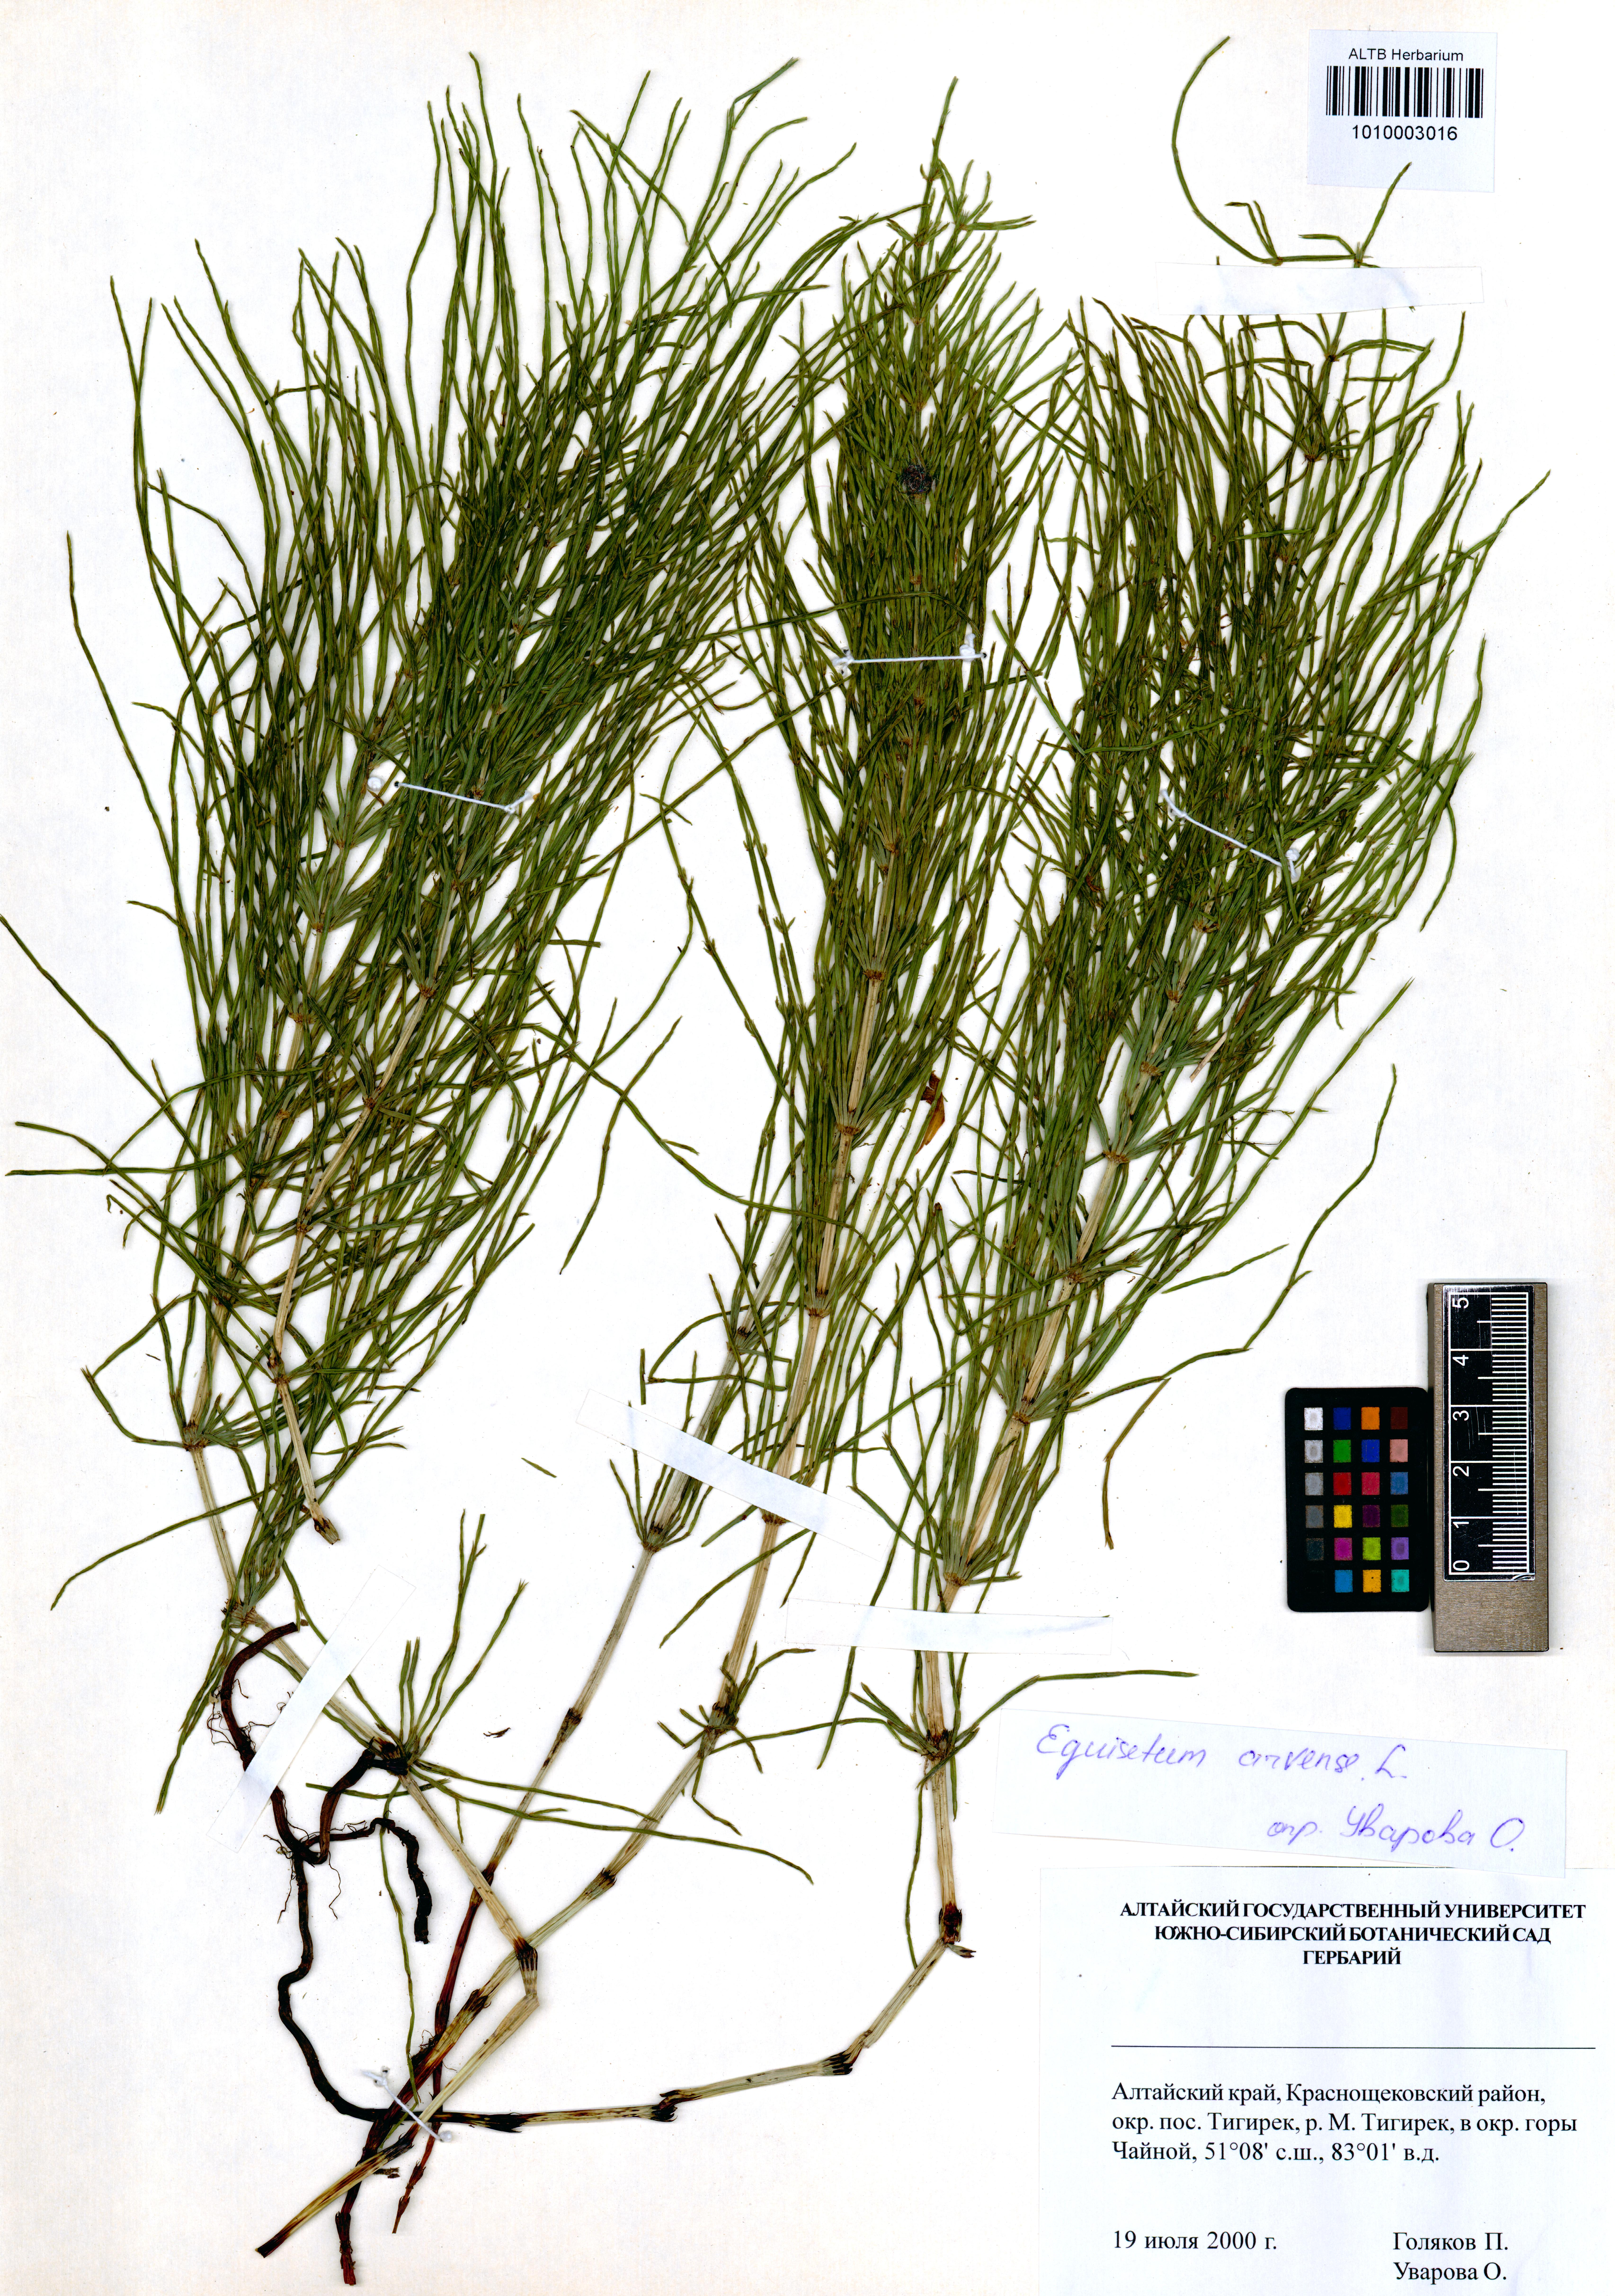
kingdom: Plantae
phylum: Tracheophyta
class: Polypodiopsida
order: Equisetales
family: Equisetaceae
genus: Equisetum
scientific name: Equisetum arvense
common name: Field horsetail
